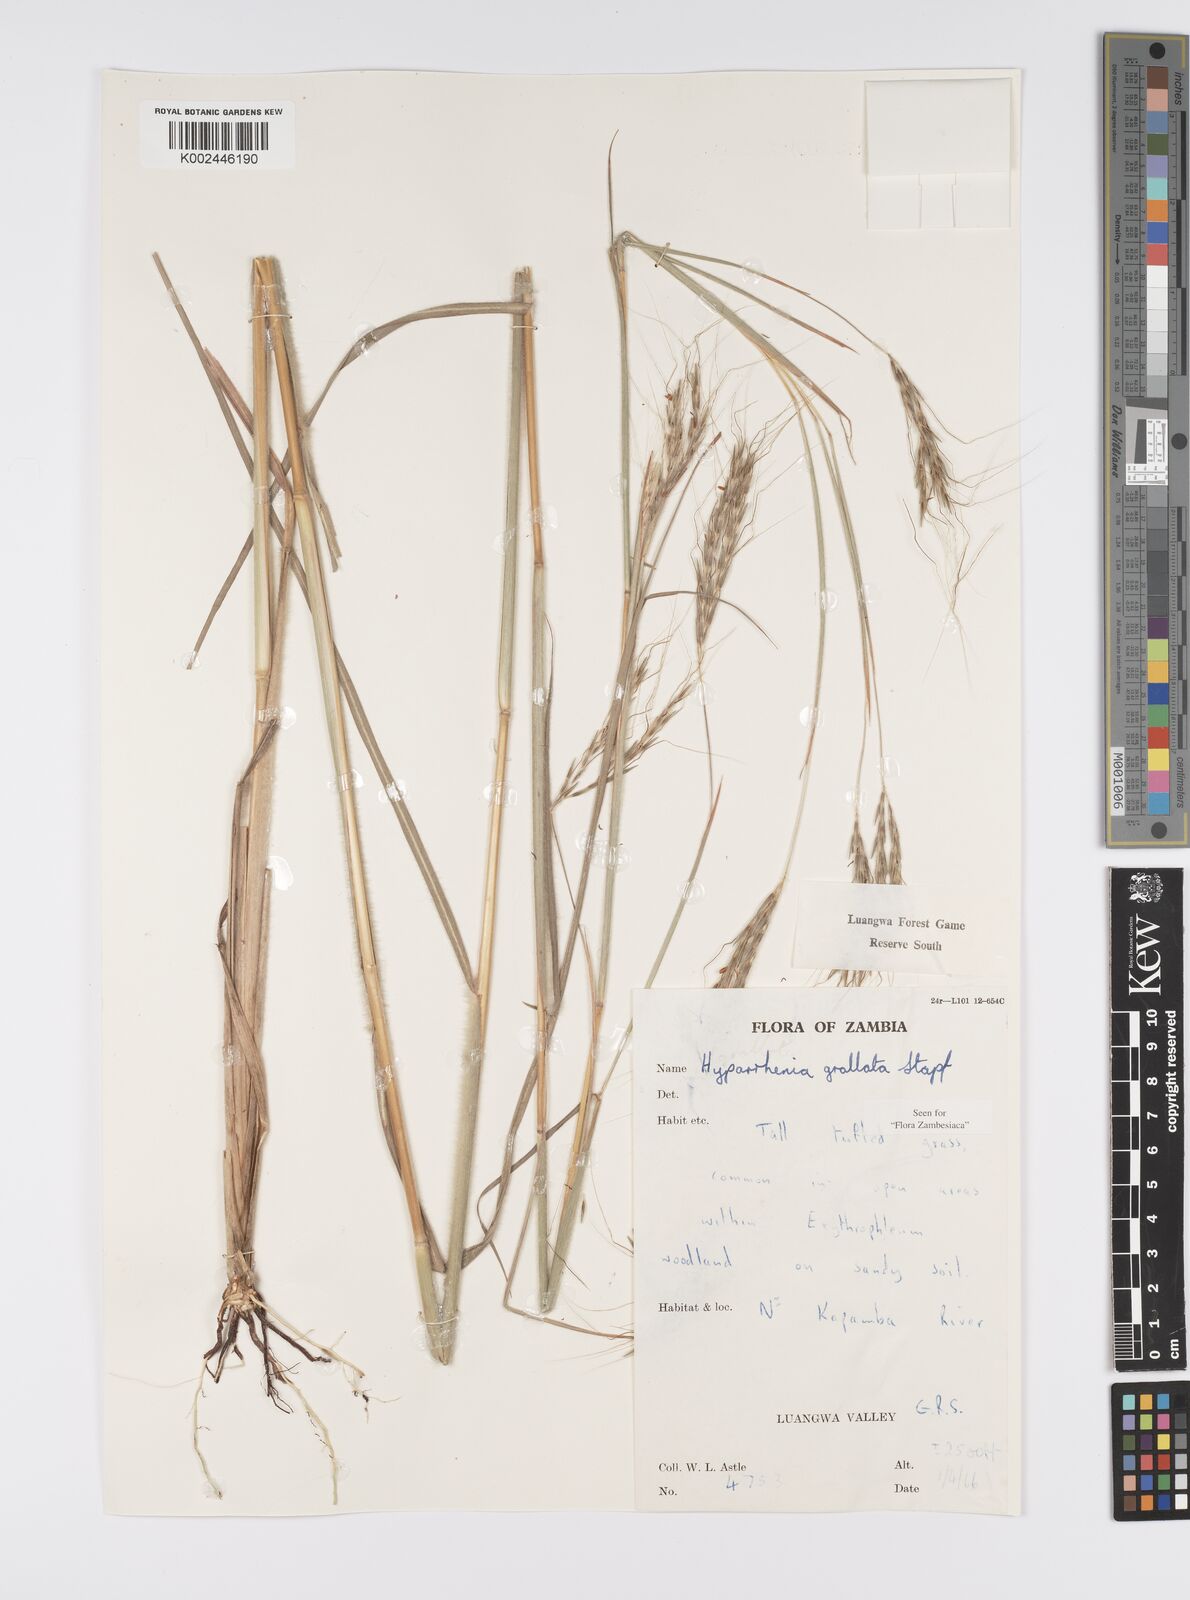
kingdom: Plantae
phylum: Tracheophyta
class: Liliopsida
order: Poales
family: Poaceae
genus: Elymandra
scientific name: Elymandra grallata
